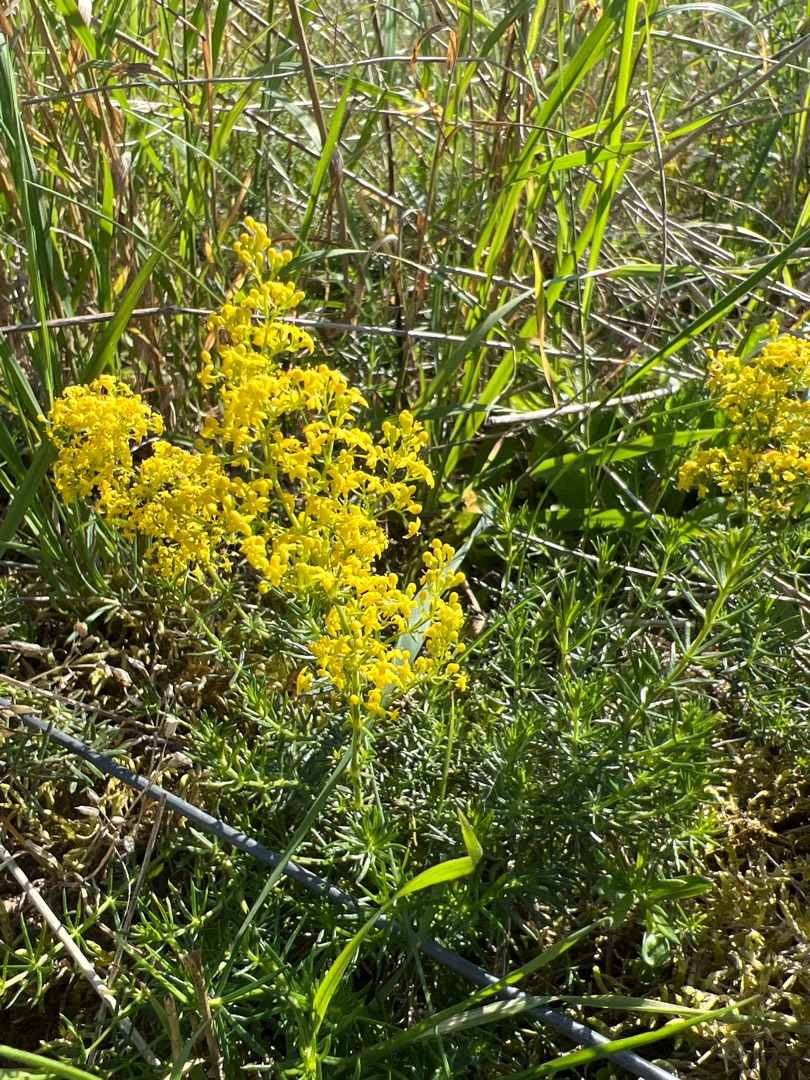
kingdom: Plantae
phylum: Tracheophyta
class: Magnoliopsida
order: Gentianales
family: Rubiaceae
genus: Galium
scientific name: Galium verum
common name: Gul snerre
